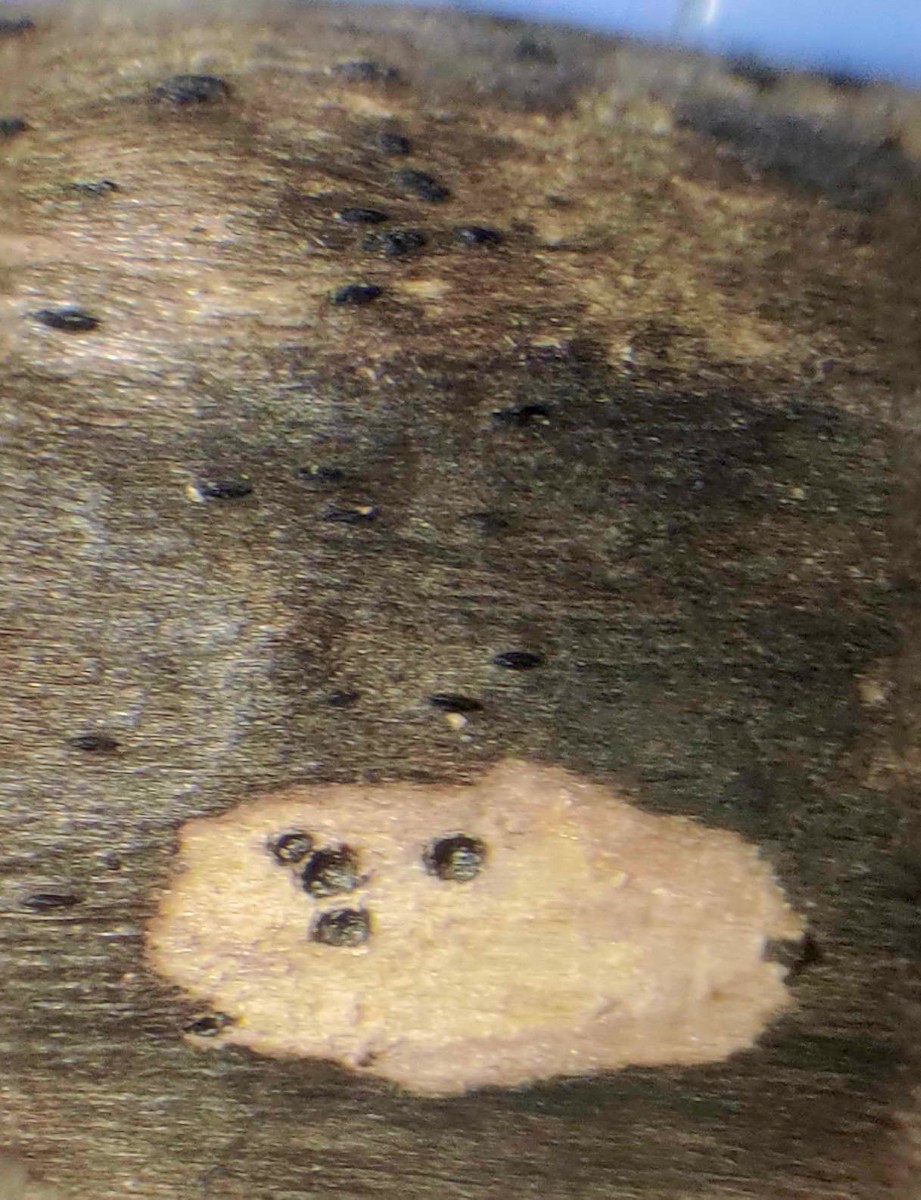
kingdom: Fungi
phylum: Ascomycota
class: Dothideomycetes
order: Pleosporales
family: Lophiostomataceae
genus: Lophiostoma
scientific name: Lophiostoma compressum
